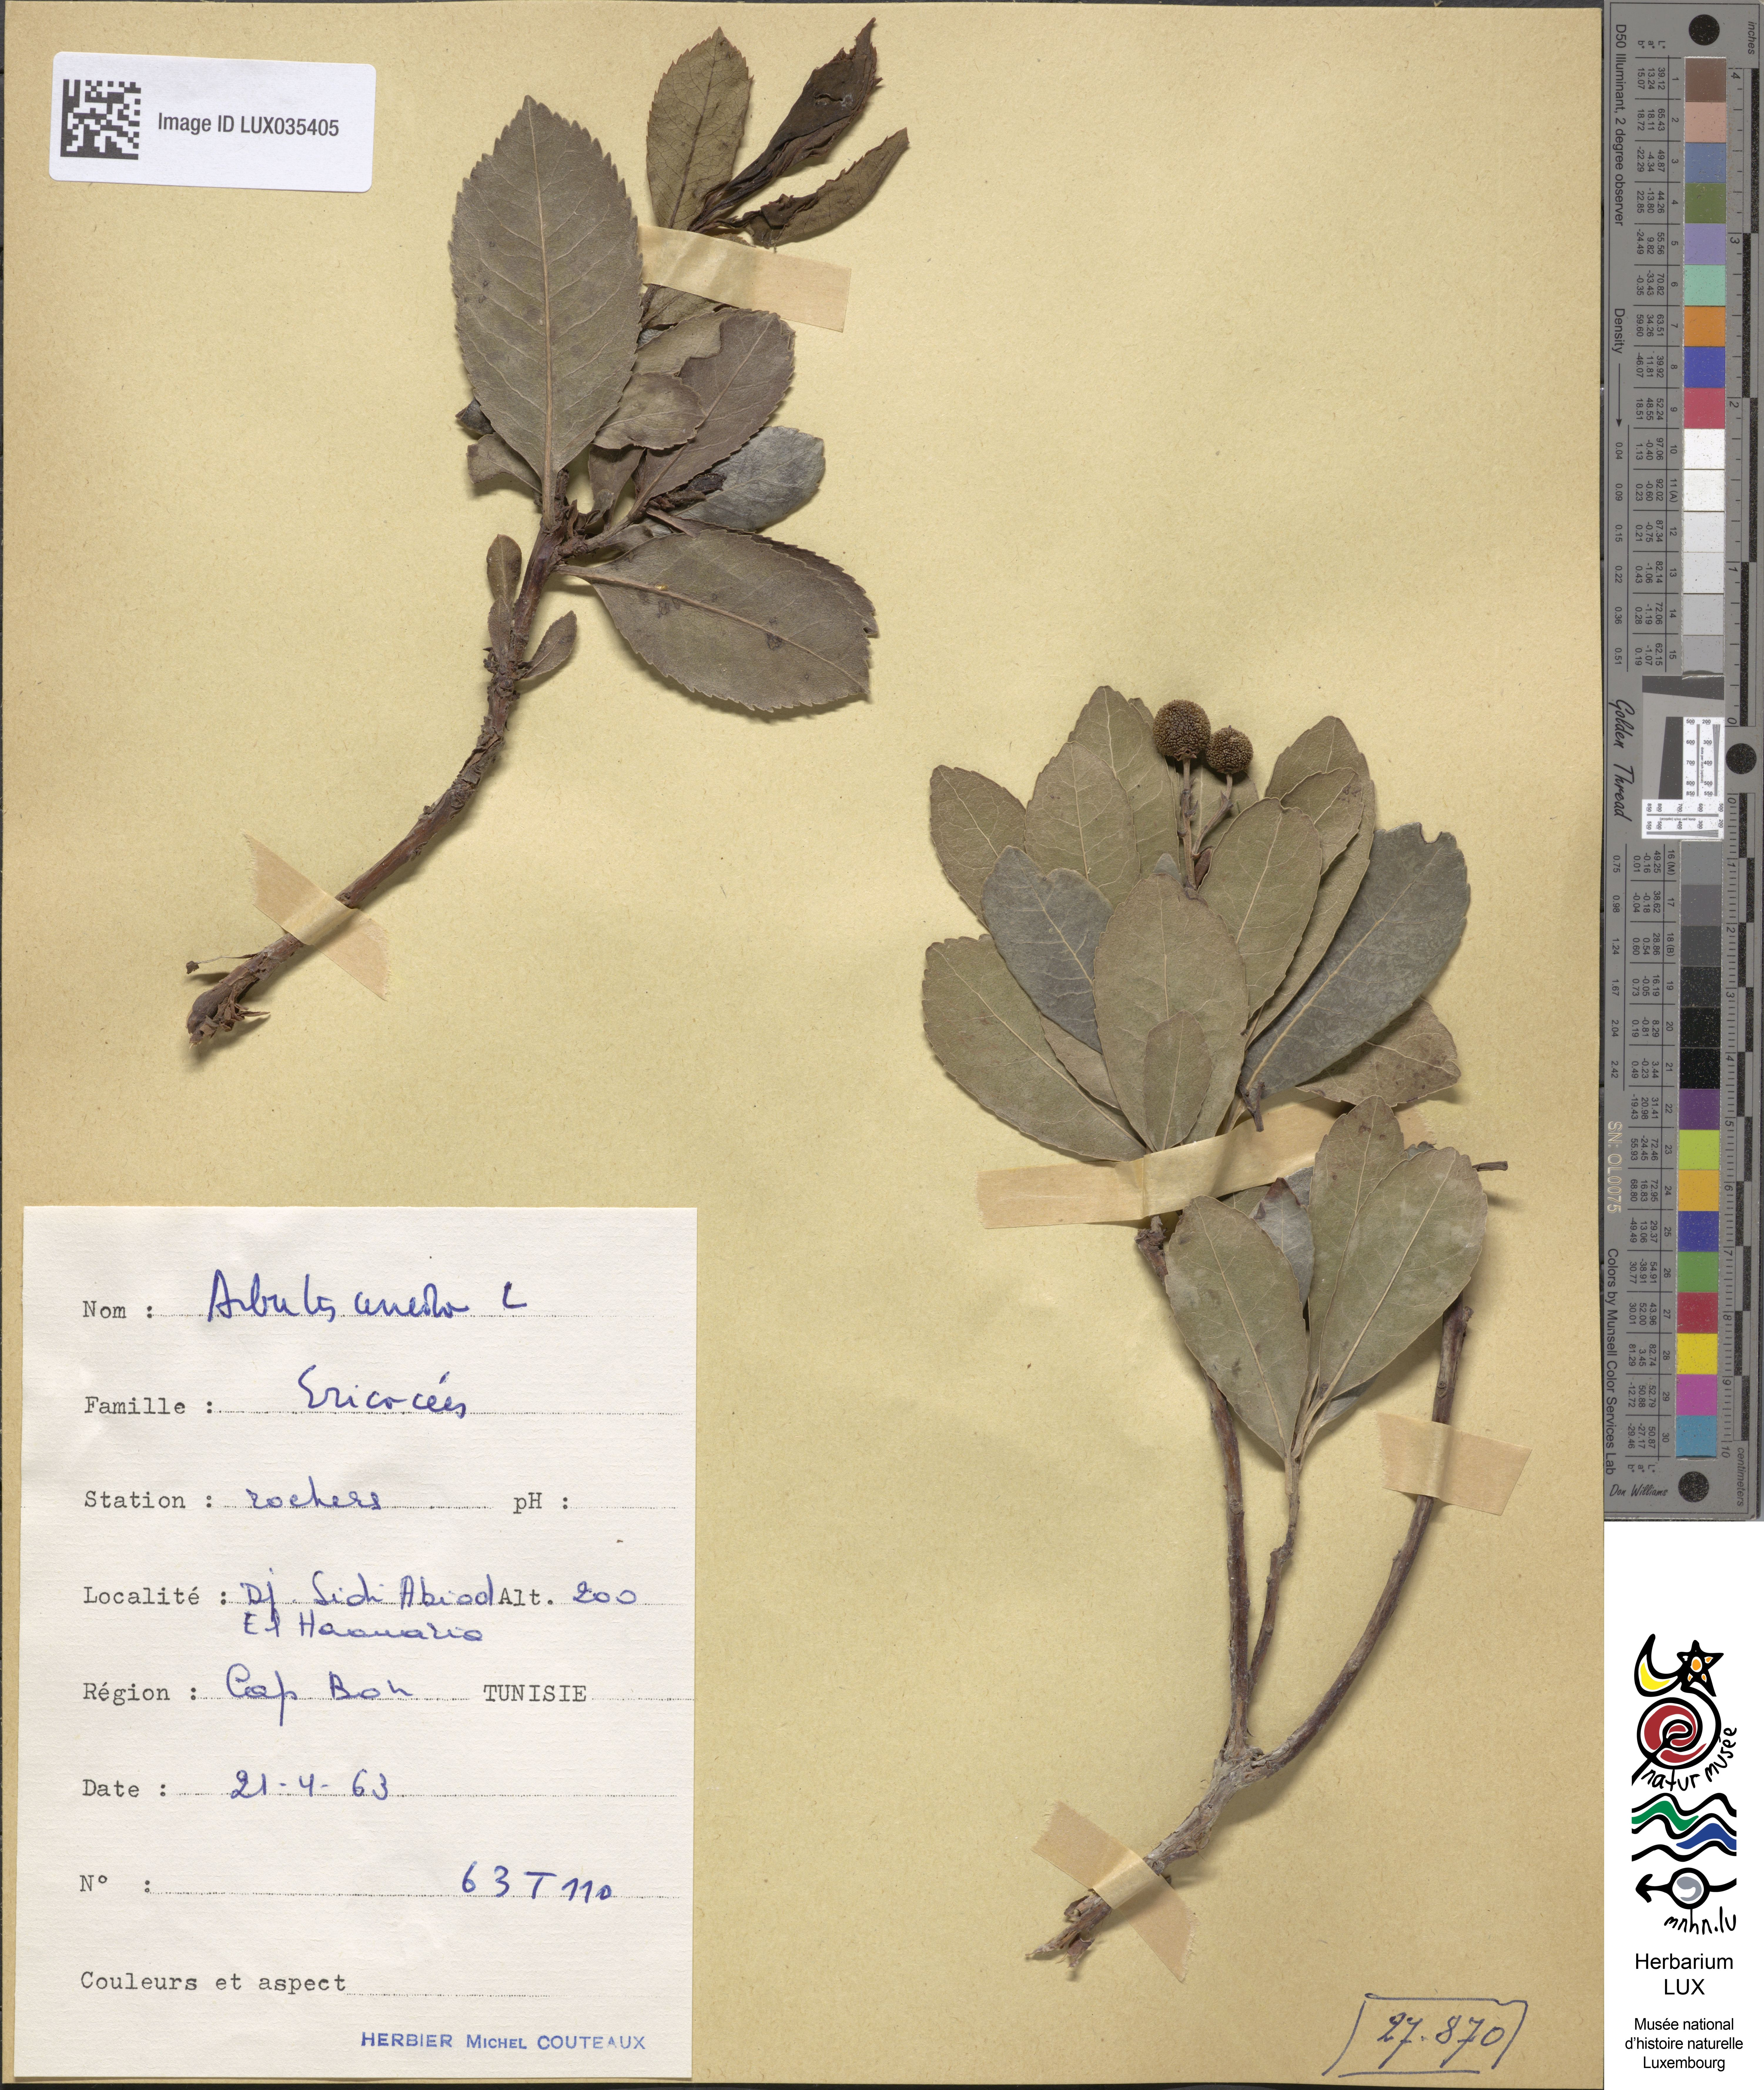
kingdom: Plantae
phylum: Tracheophyta
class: Magnoliopsida
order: Ericales
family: Ericaceae
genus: Arbutus
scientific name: Arbutus unedo
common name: Strawberry-tree
